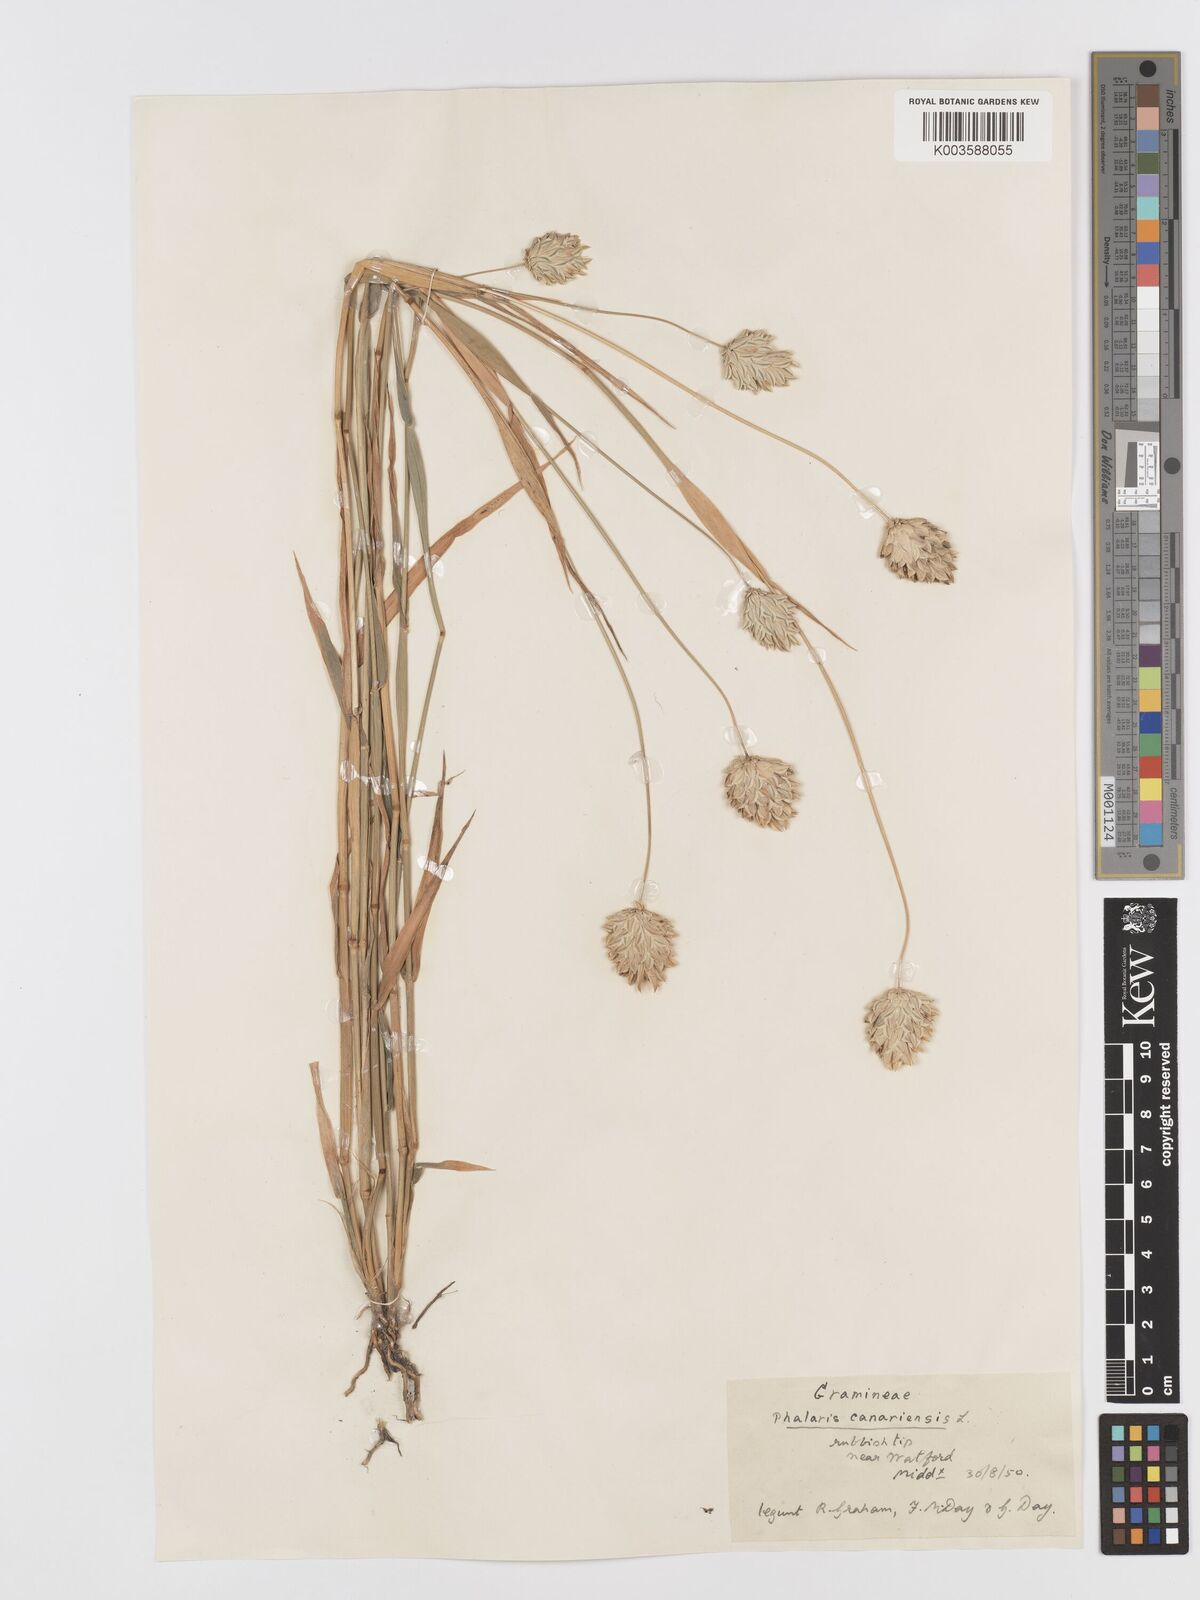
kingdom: Plantae
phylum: Tracheophyta
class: Liliopsida
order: Poales
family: Poaceae
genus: Phalaris
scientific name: Phalaris canariensis
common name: Annual canarygrass
